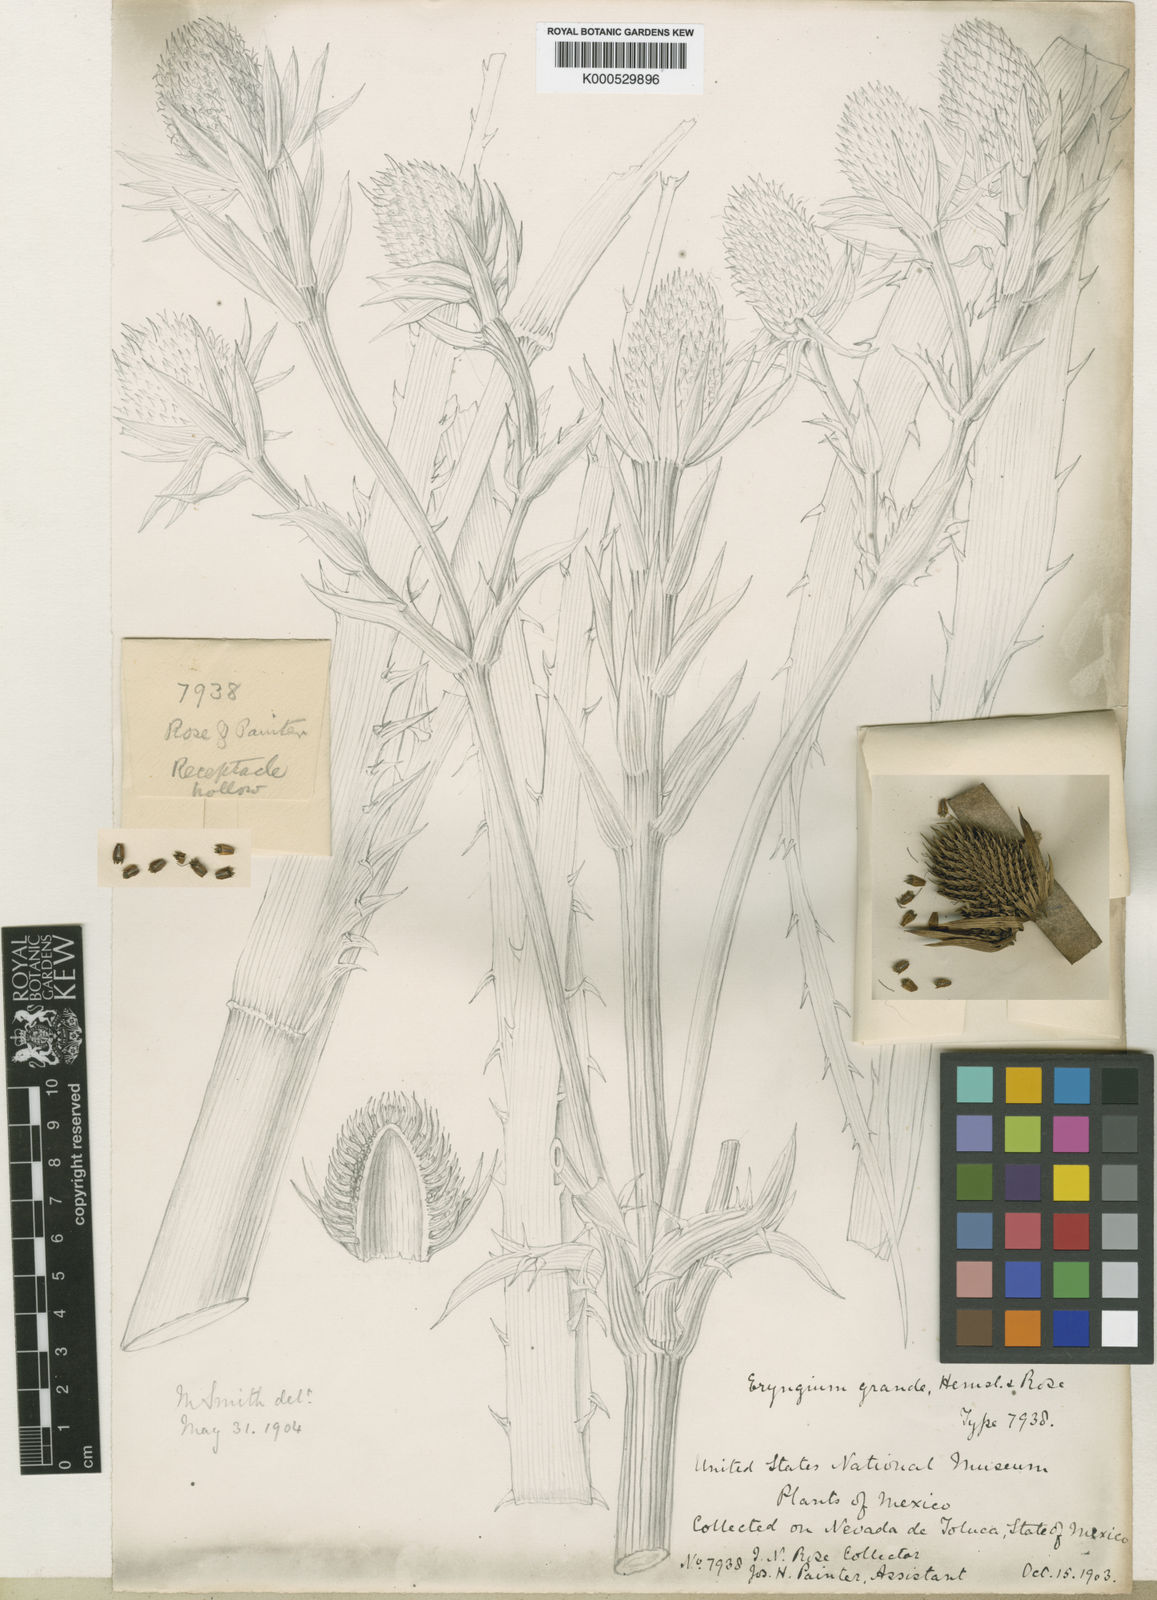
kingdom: Plantae
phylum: Tracheophyta
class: Magnoliopsida
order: Apiales
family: Apiaceae
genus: Eryngium
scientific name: Eryngium monocephalum
